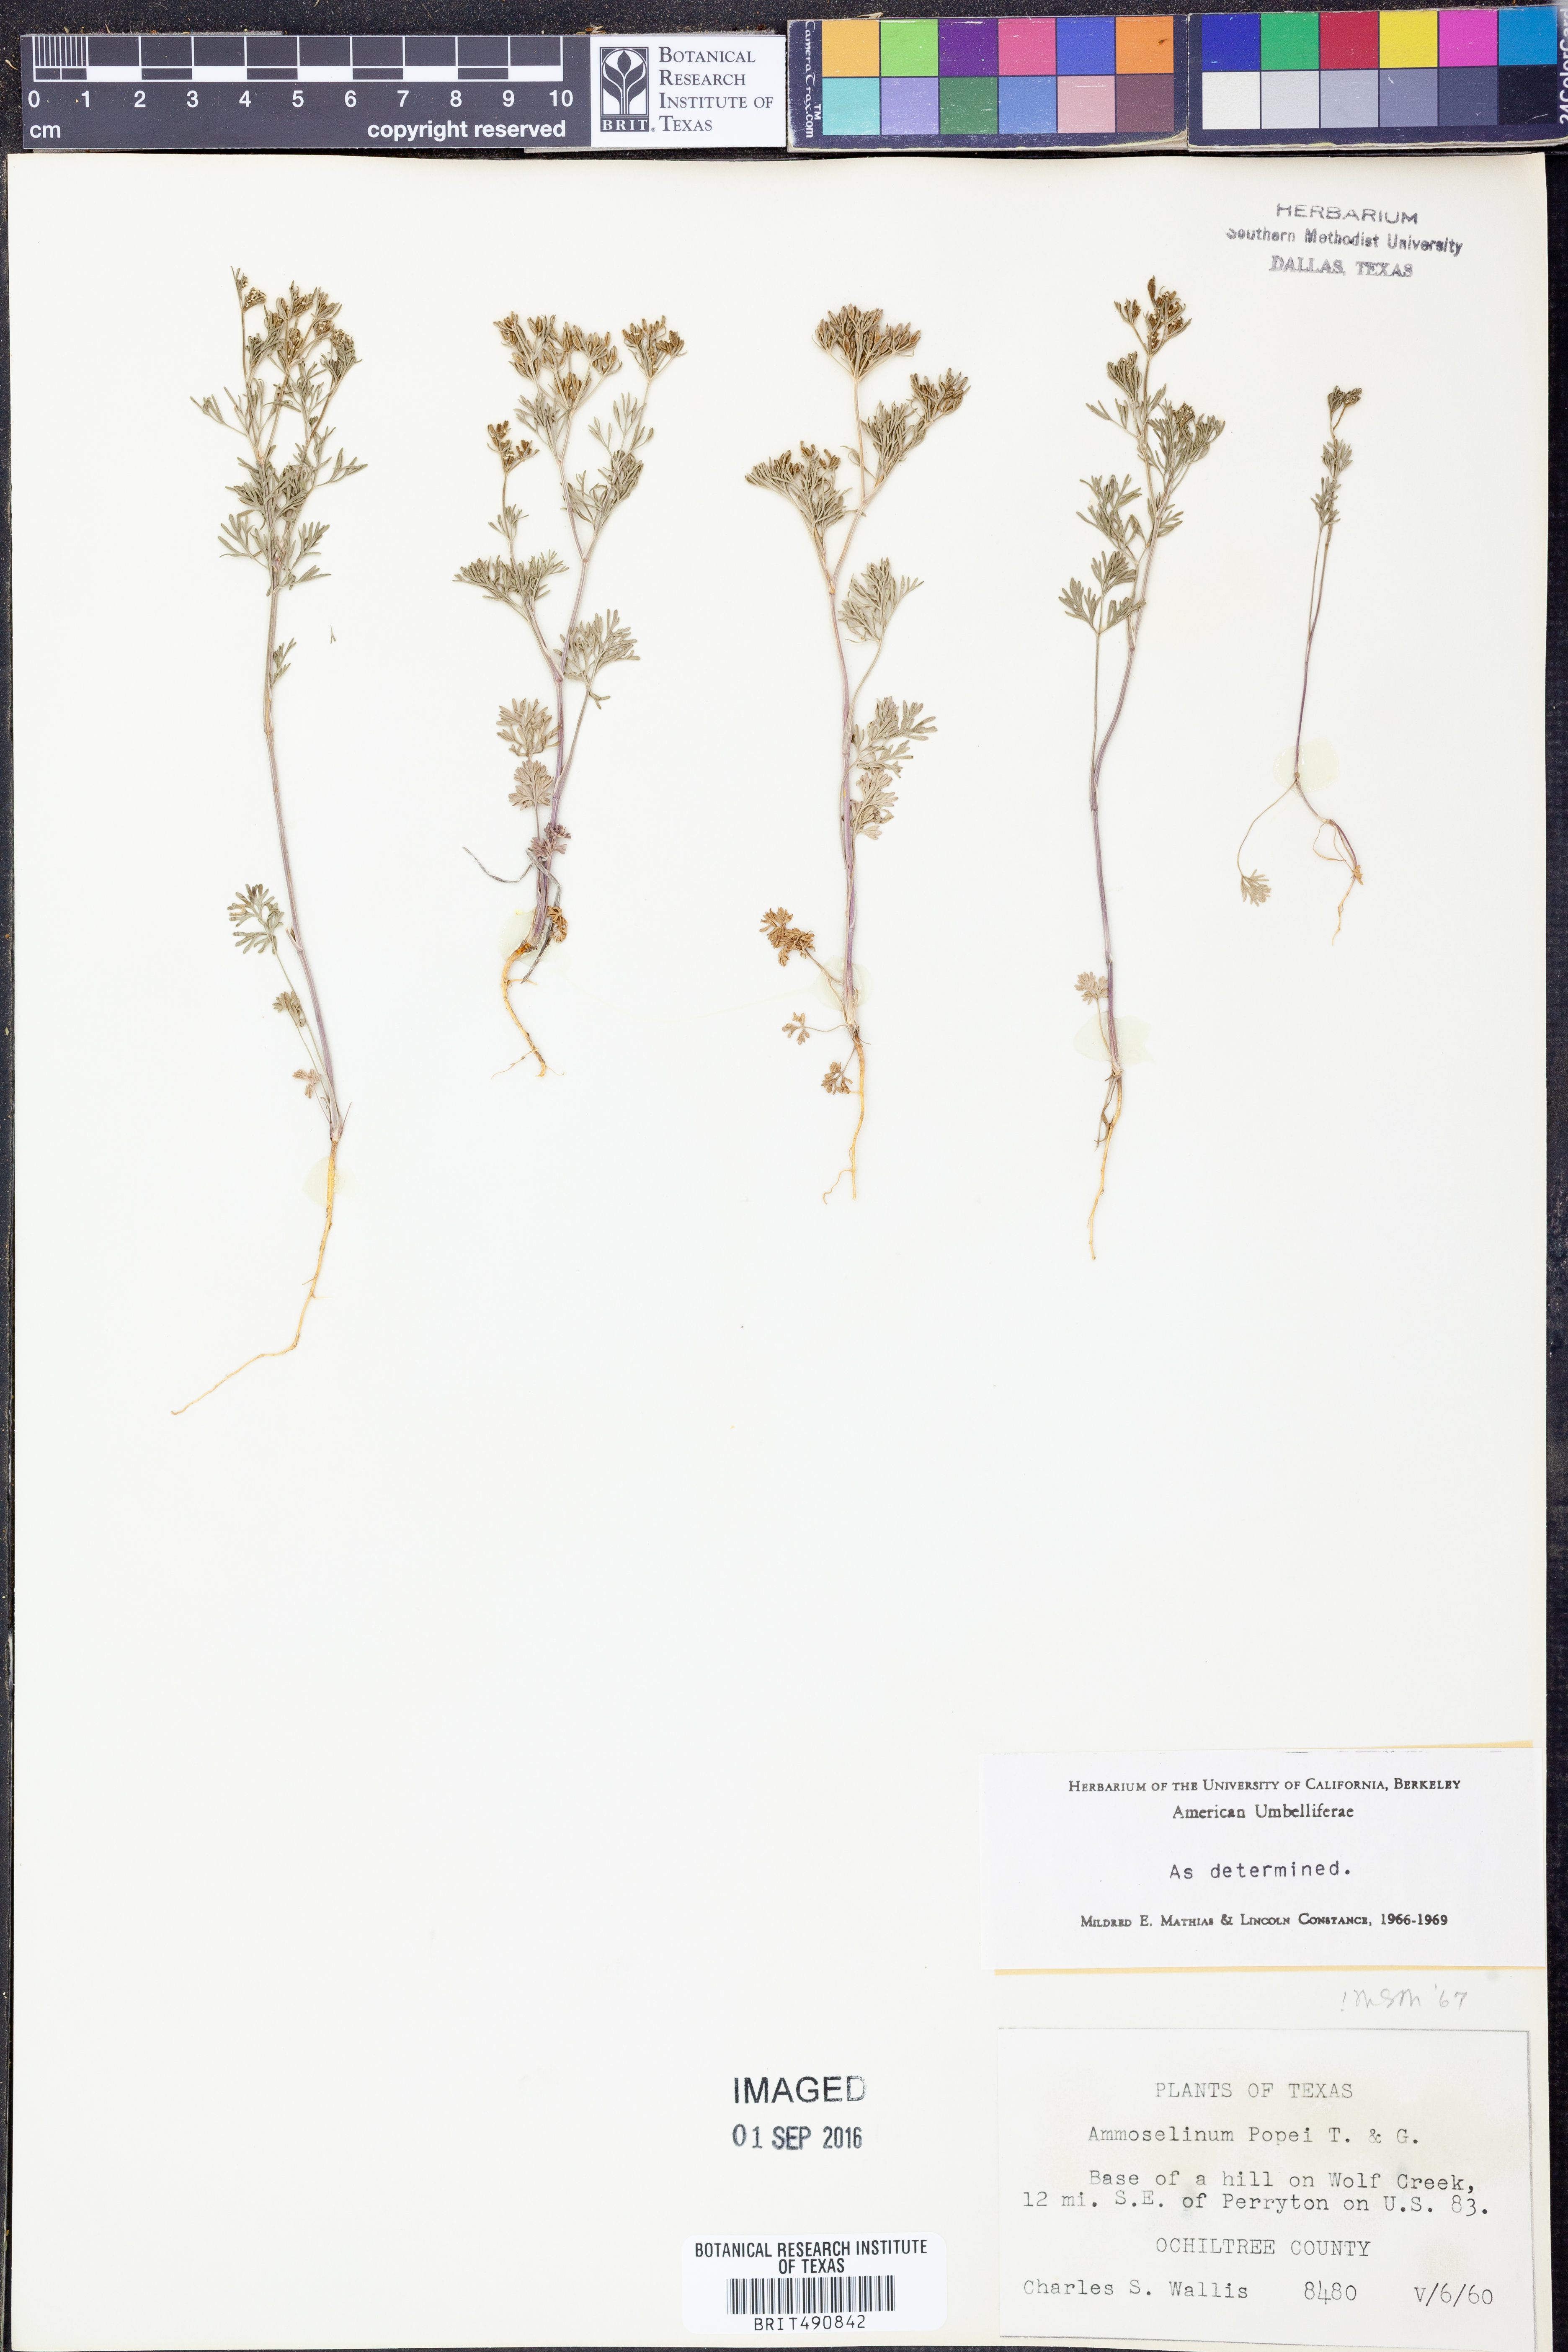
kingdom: Plantae
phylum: Tracheophyta
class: Magnoliopsida
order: Apiales
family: Apiaceae
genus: Ammoselinum
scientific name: Ammoselinum popei
